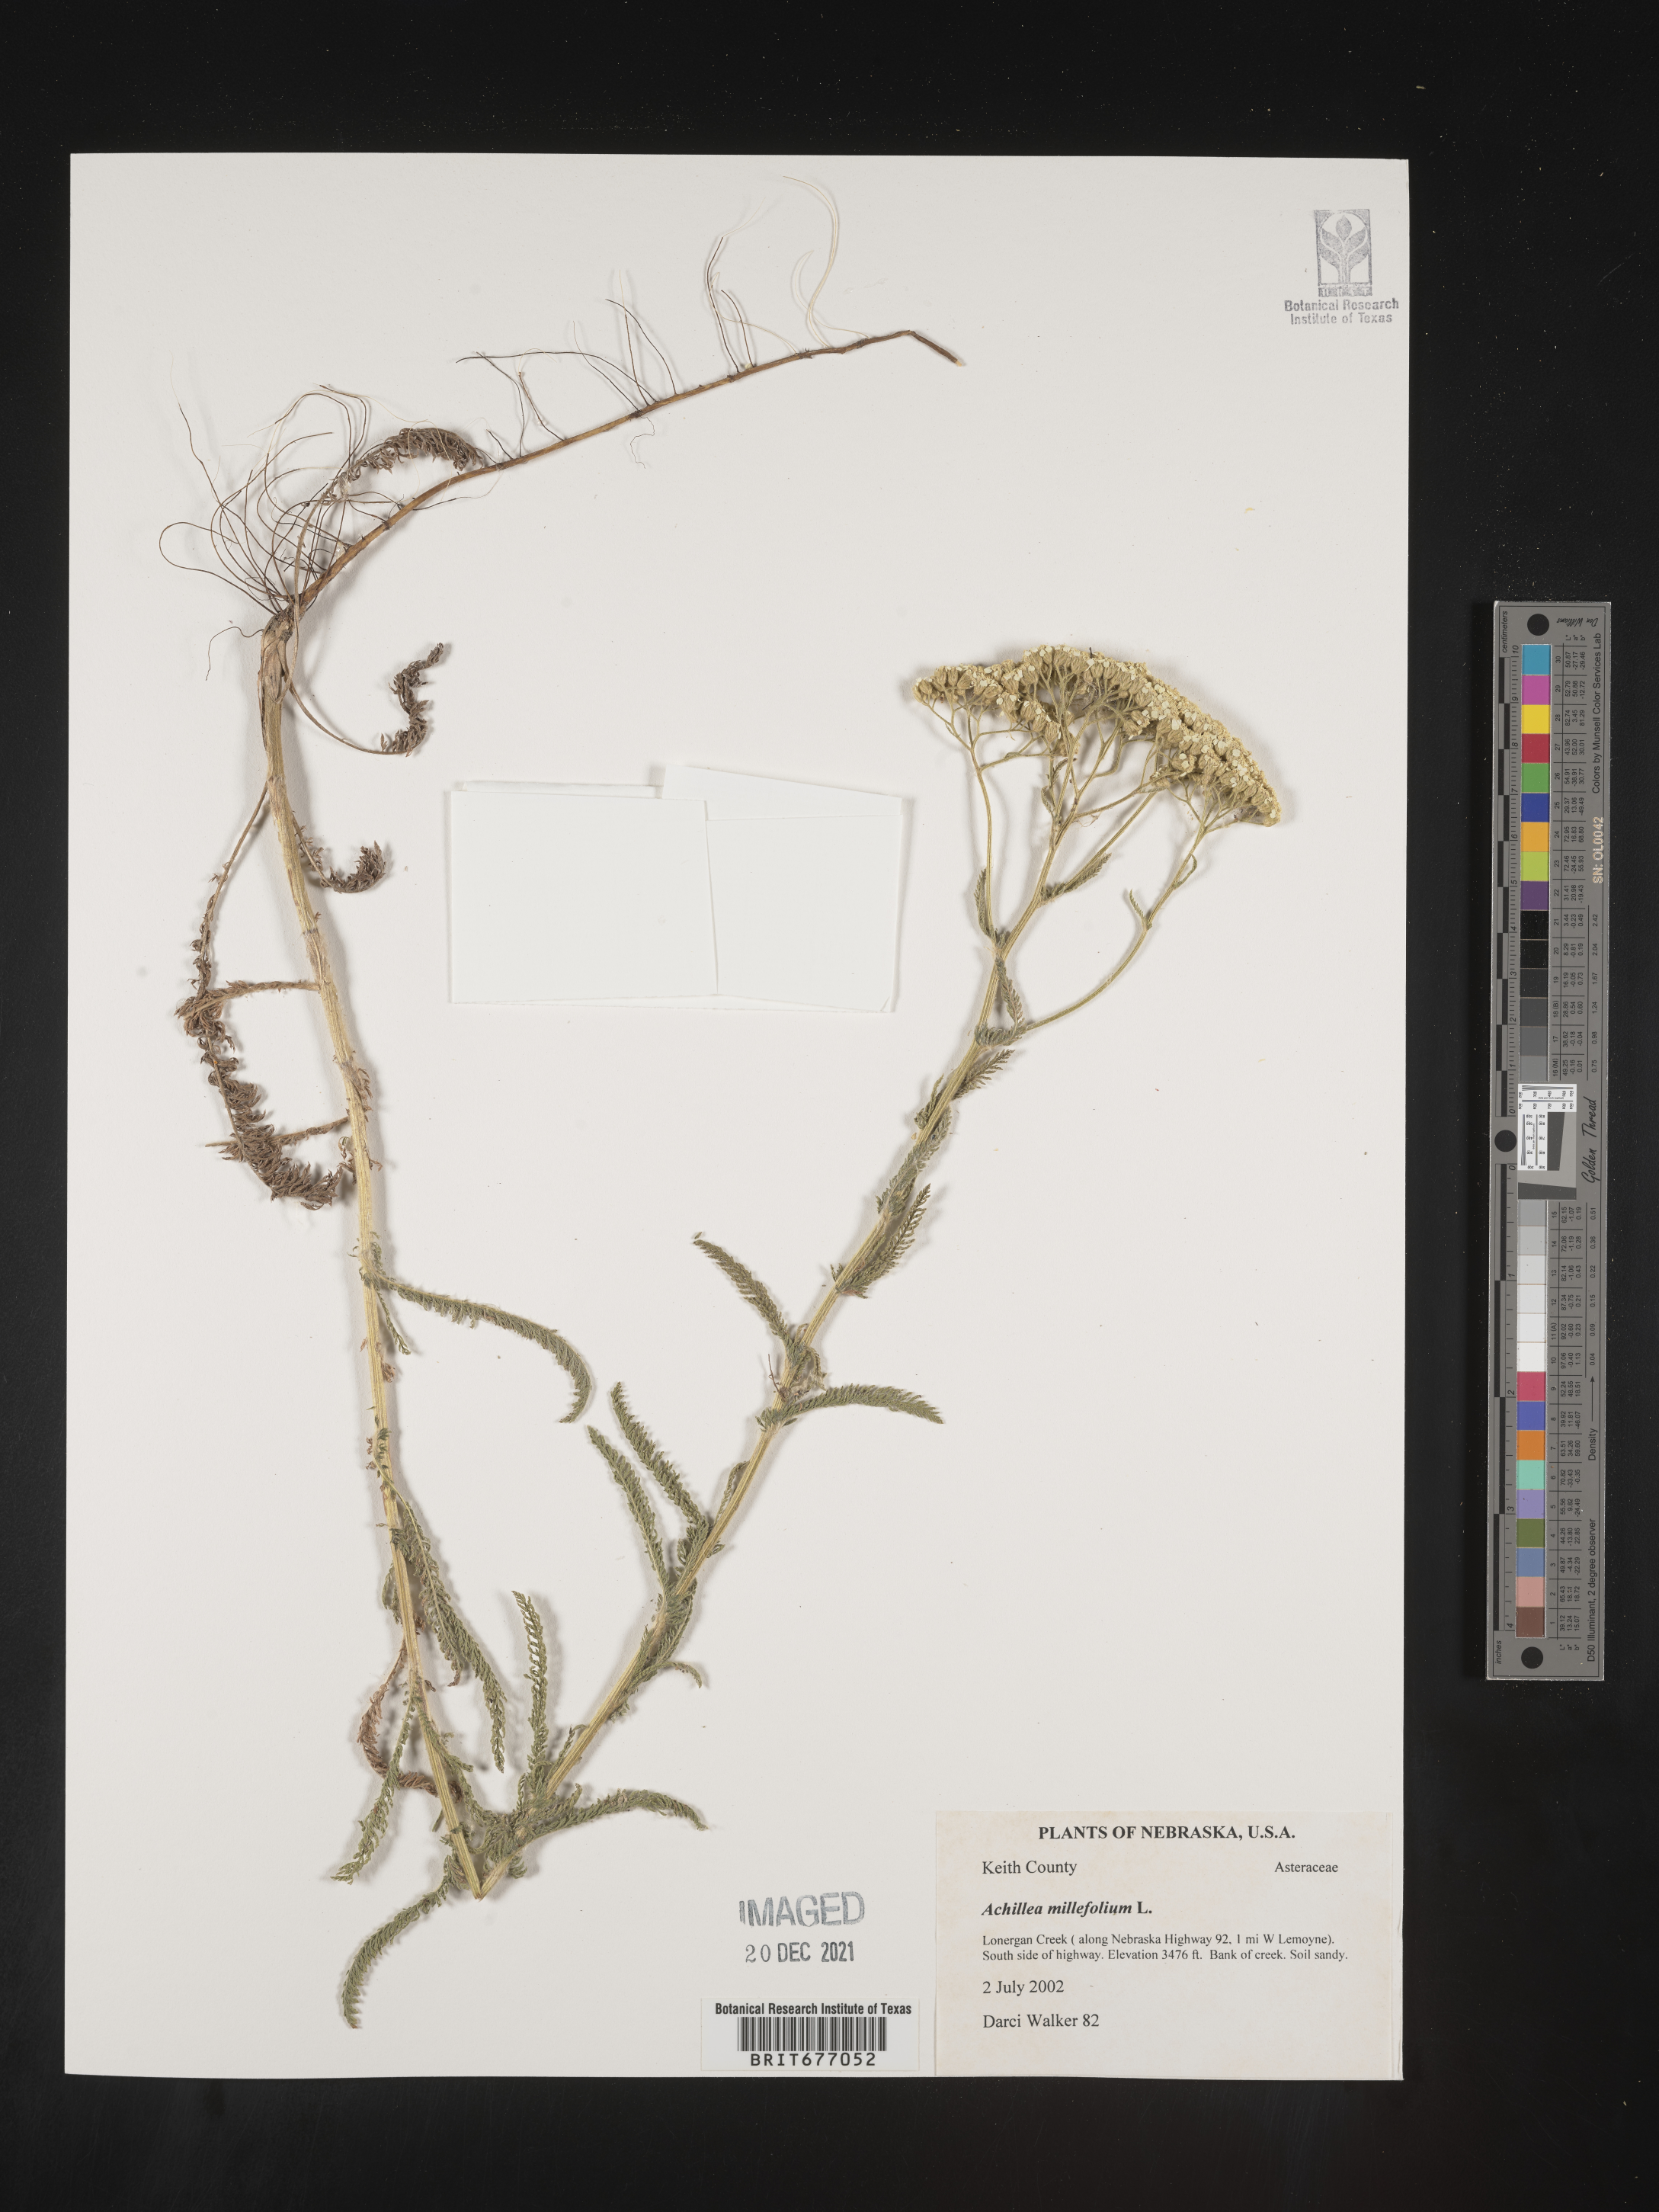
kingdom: Plantae
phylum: Tracheophyta
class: Magnoliopsida
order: Asterales
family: Asteraceae
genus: Achillea
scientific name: Achillea millefolium
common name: Yarrow
